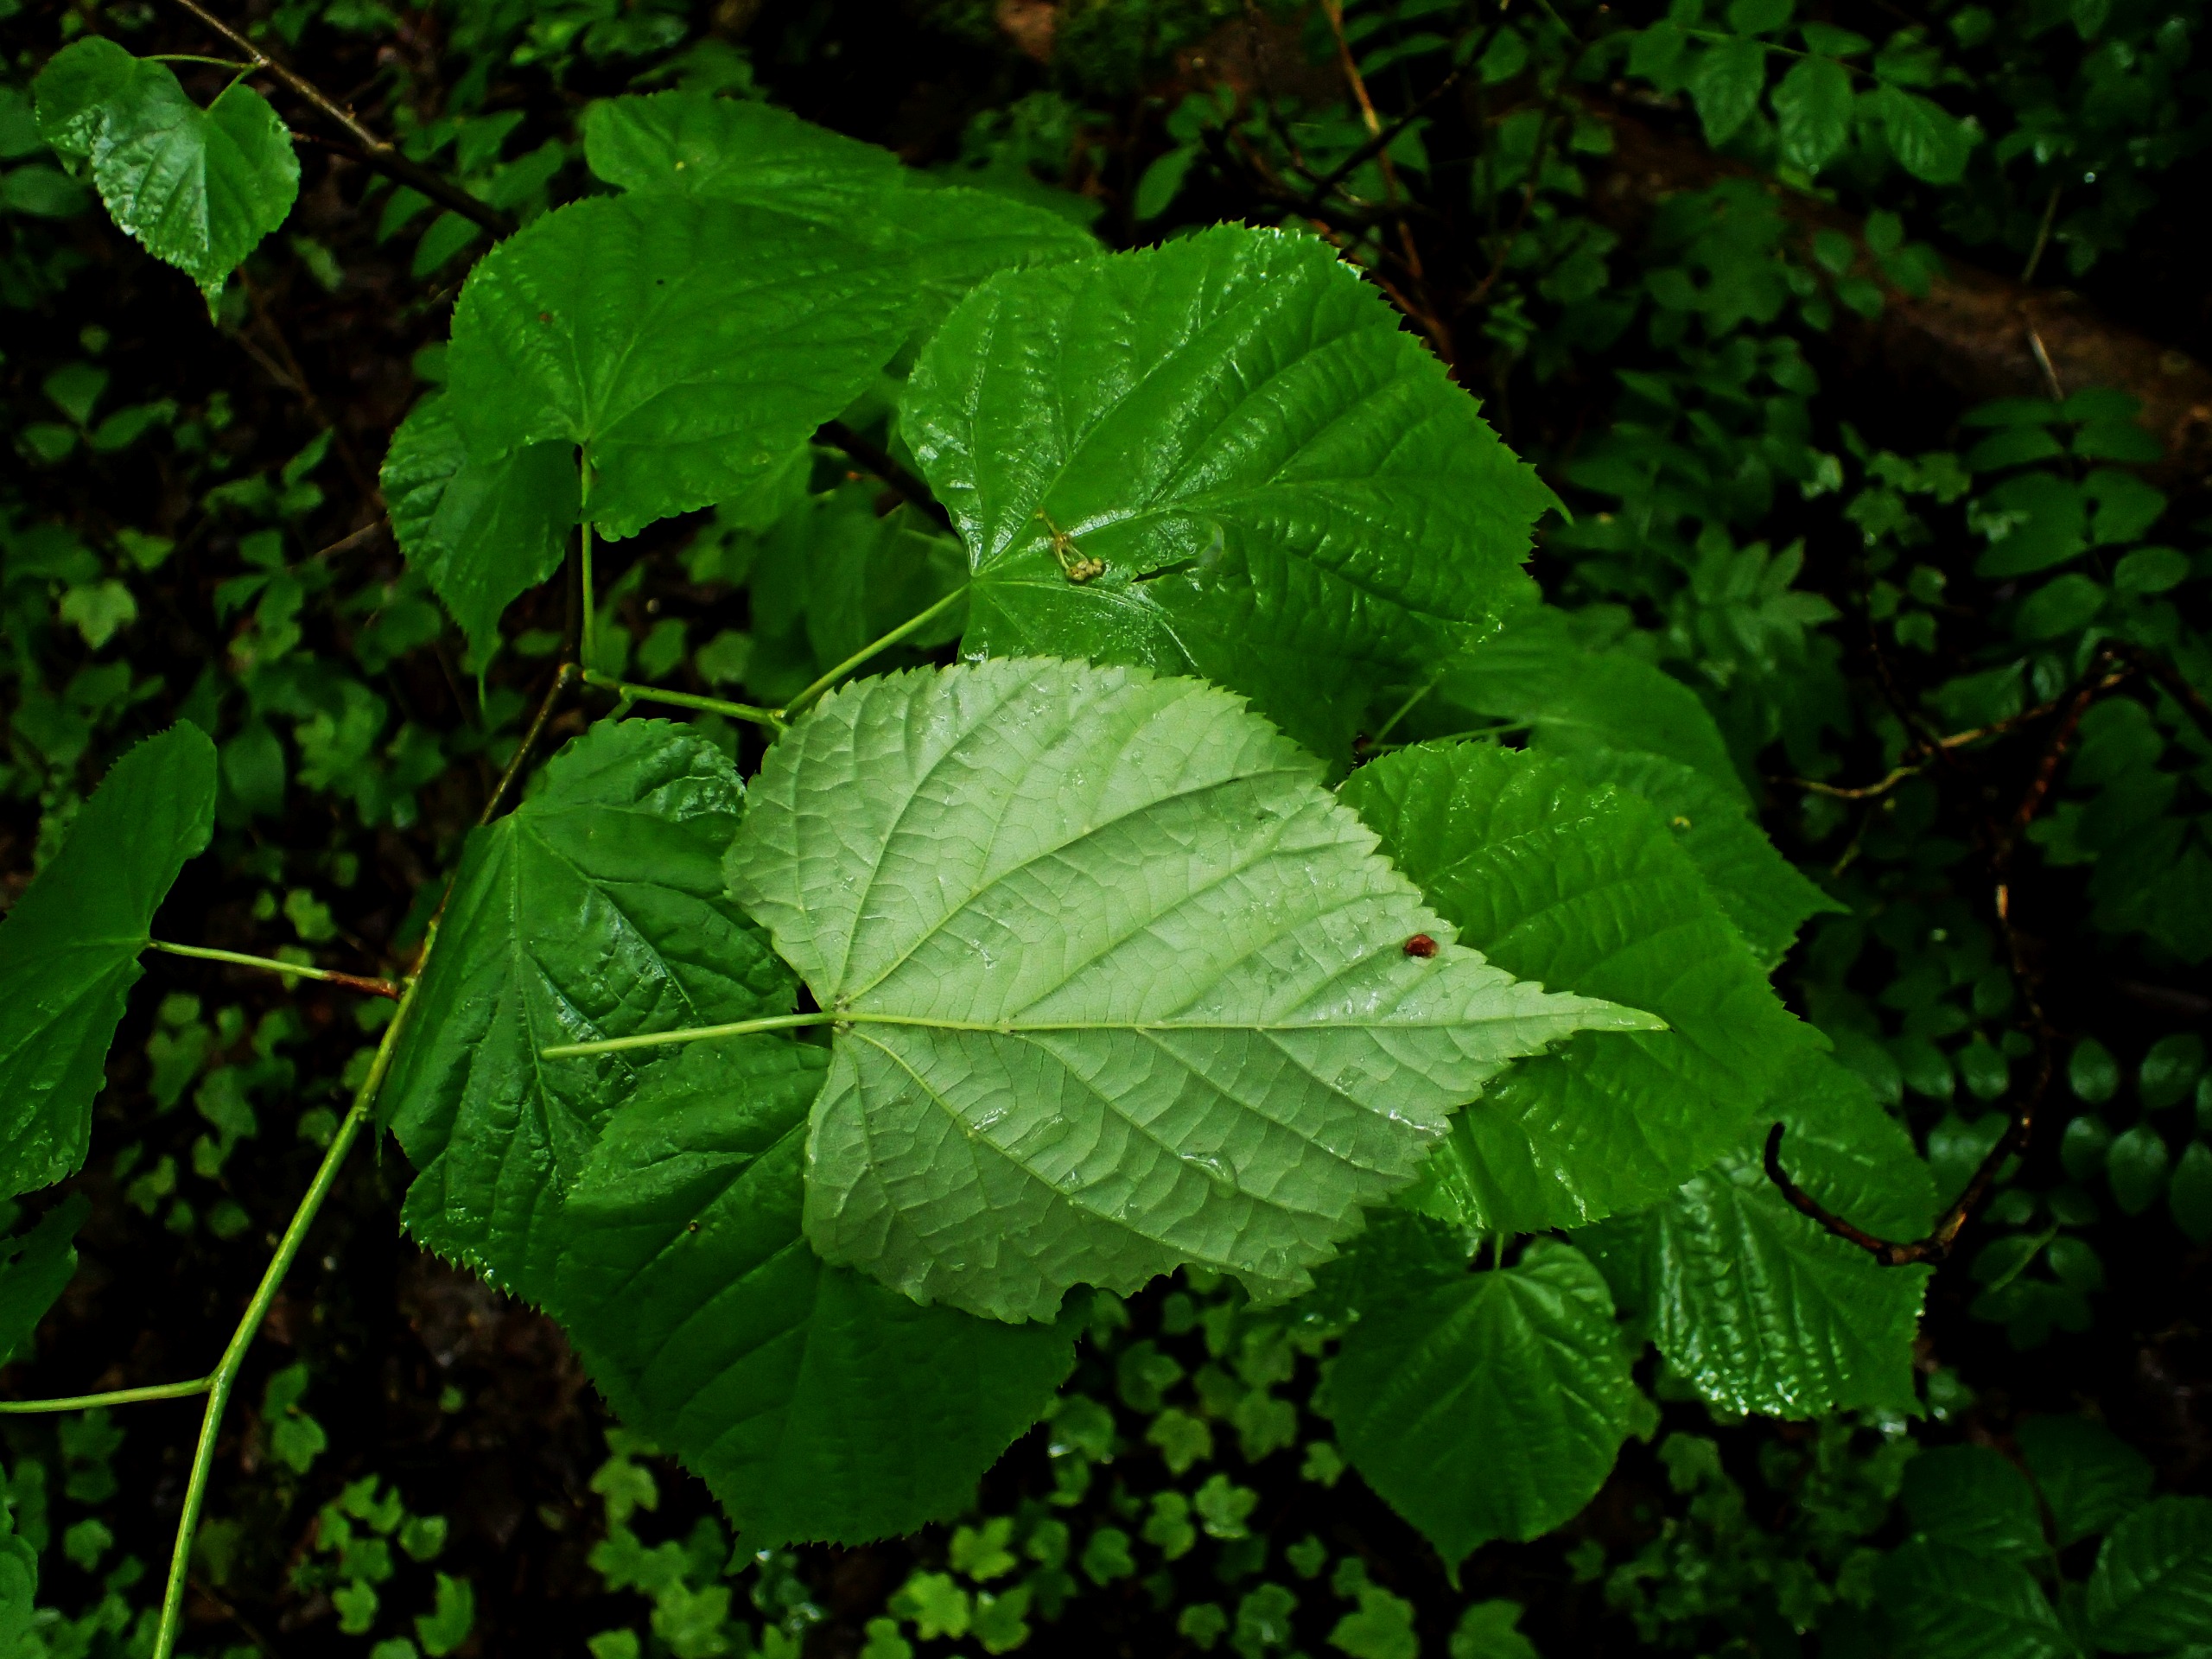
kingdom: Plantae
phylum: Tracheophyta
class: Magnoliopsida
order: Malvales
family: Malvaceae
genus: Tilia
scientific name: Tilia europaea
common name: Park-lind
